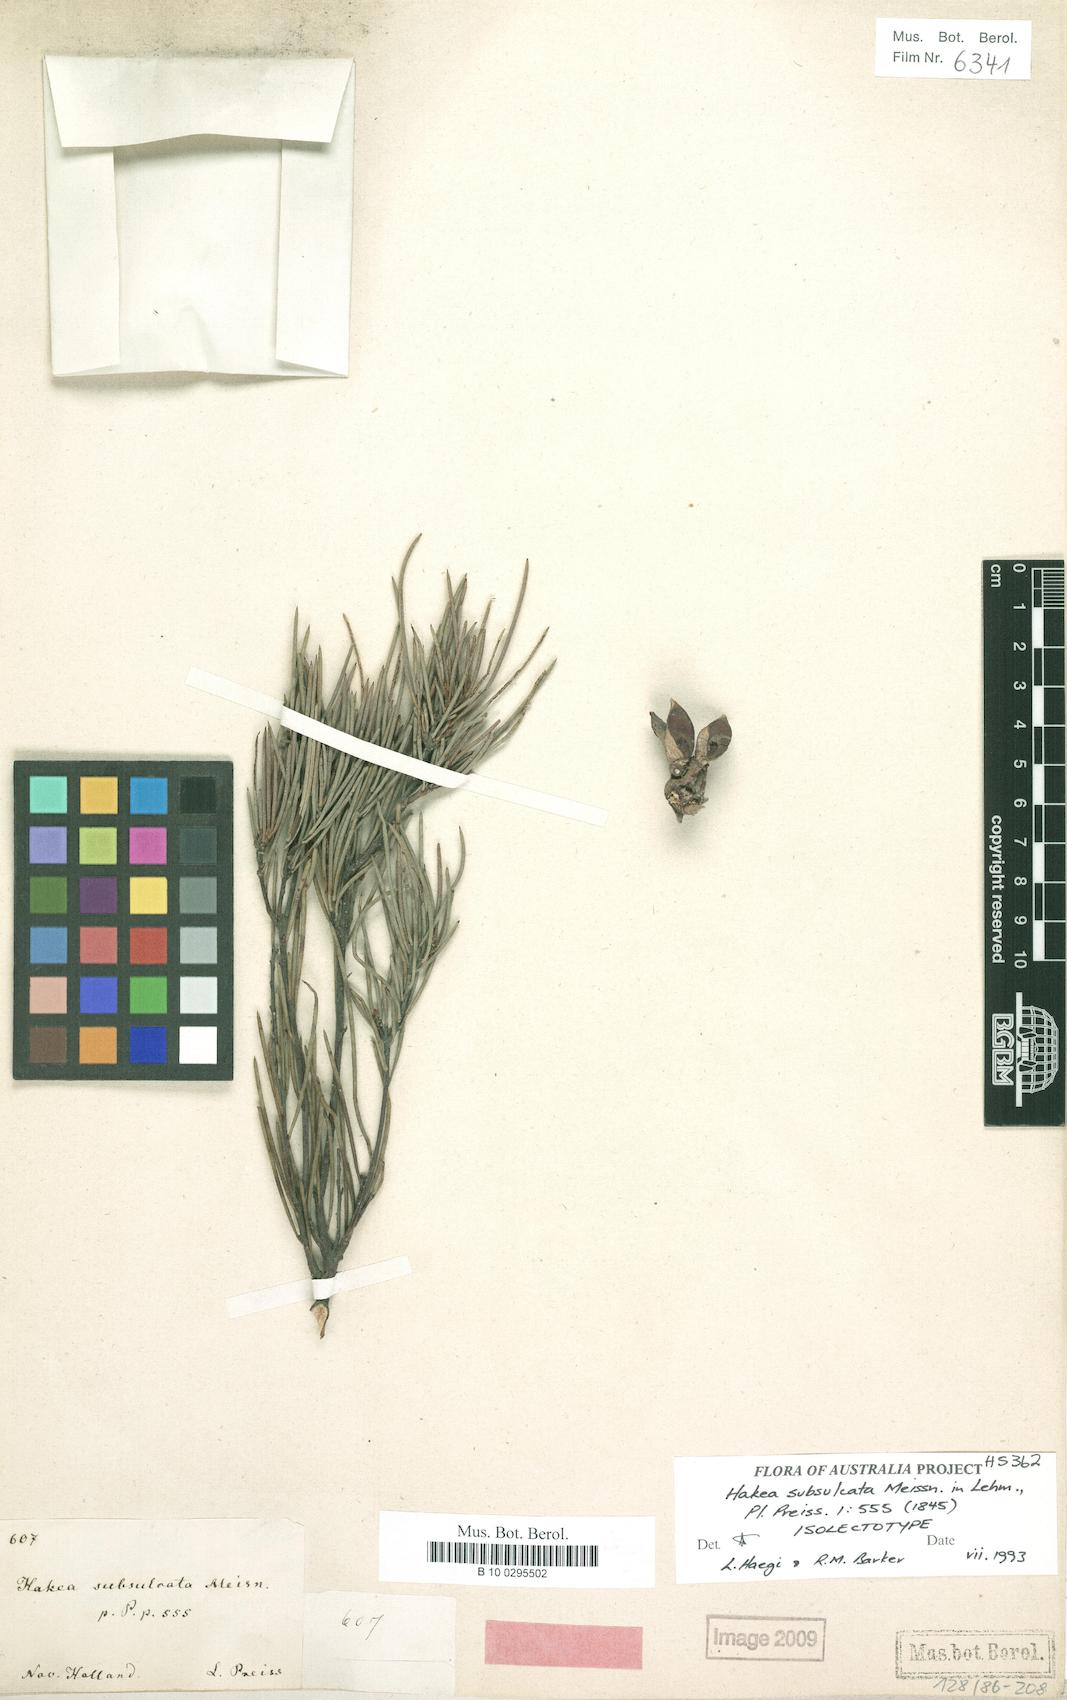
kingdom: Plantae
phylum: Tracheophyta
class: Magnoliopsida
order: Proteales
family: Proteaceae
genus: Hakea
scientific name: Hakea subsulcata
